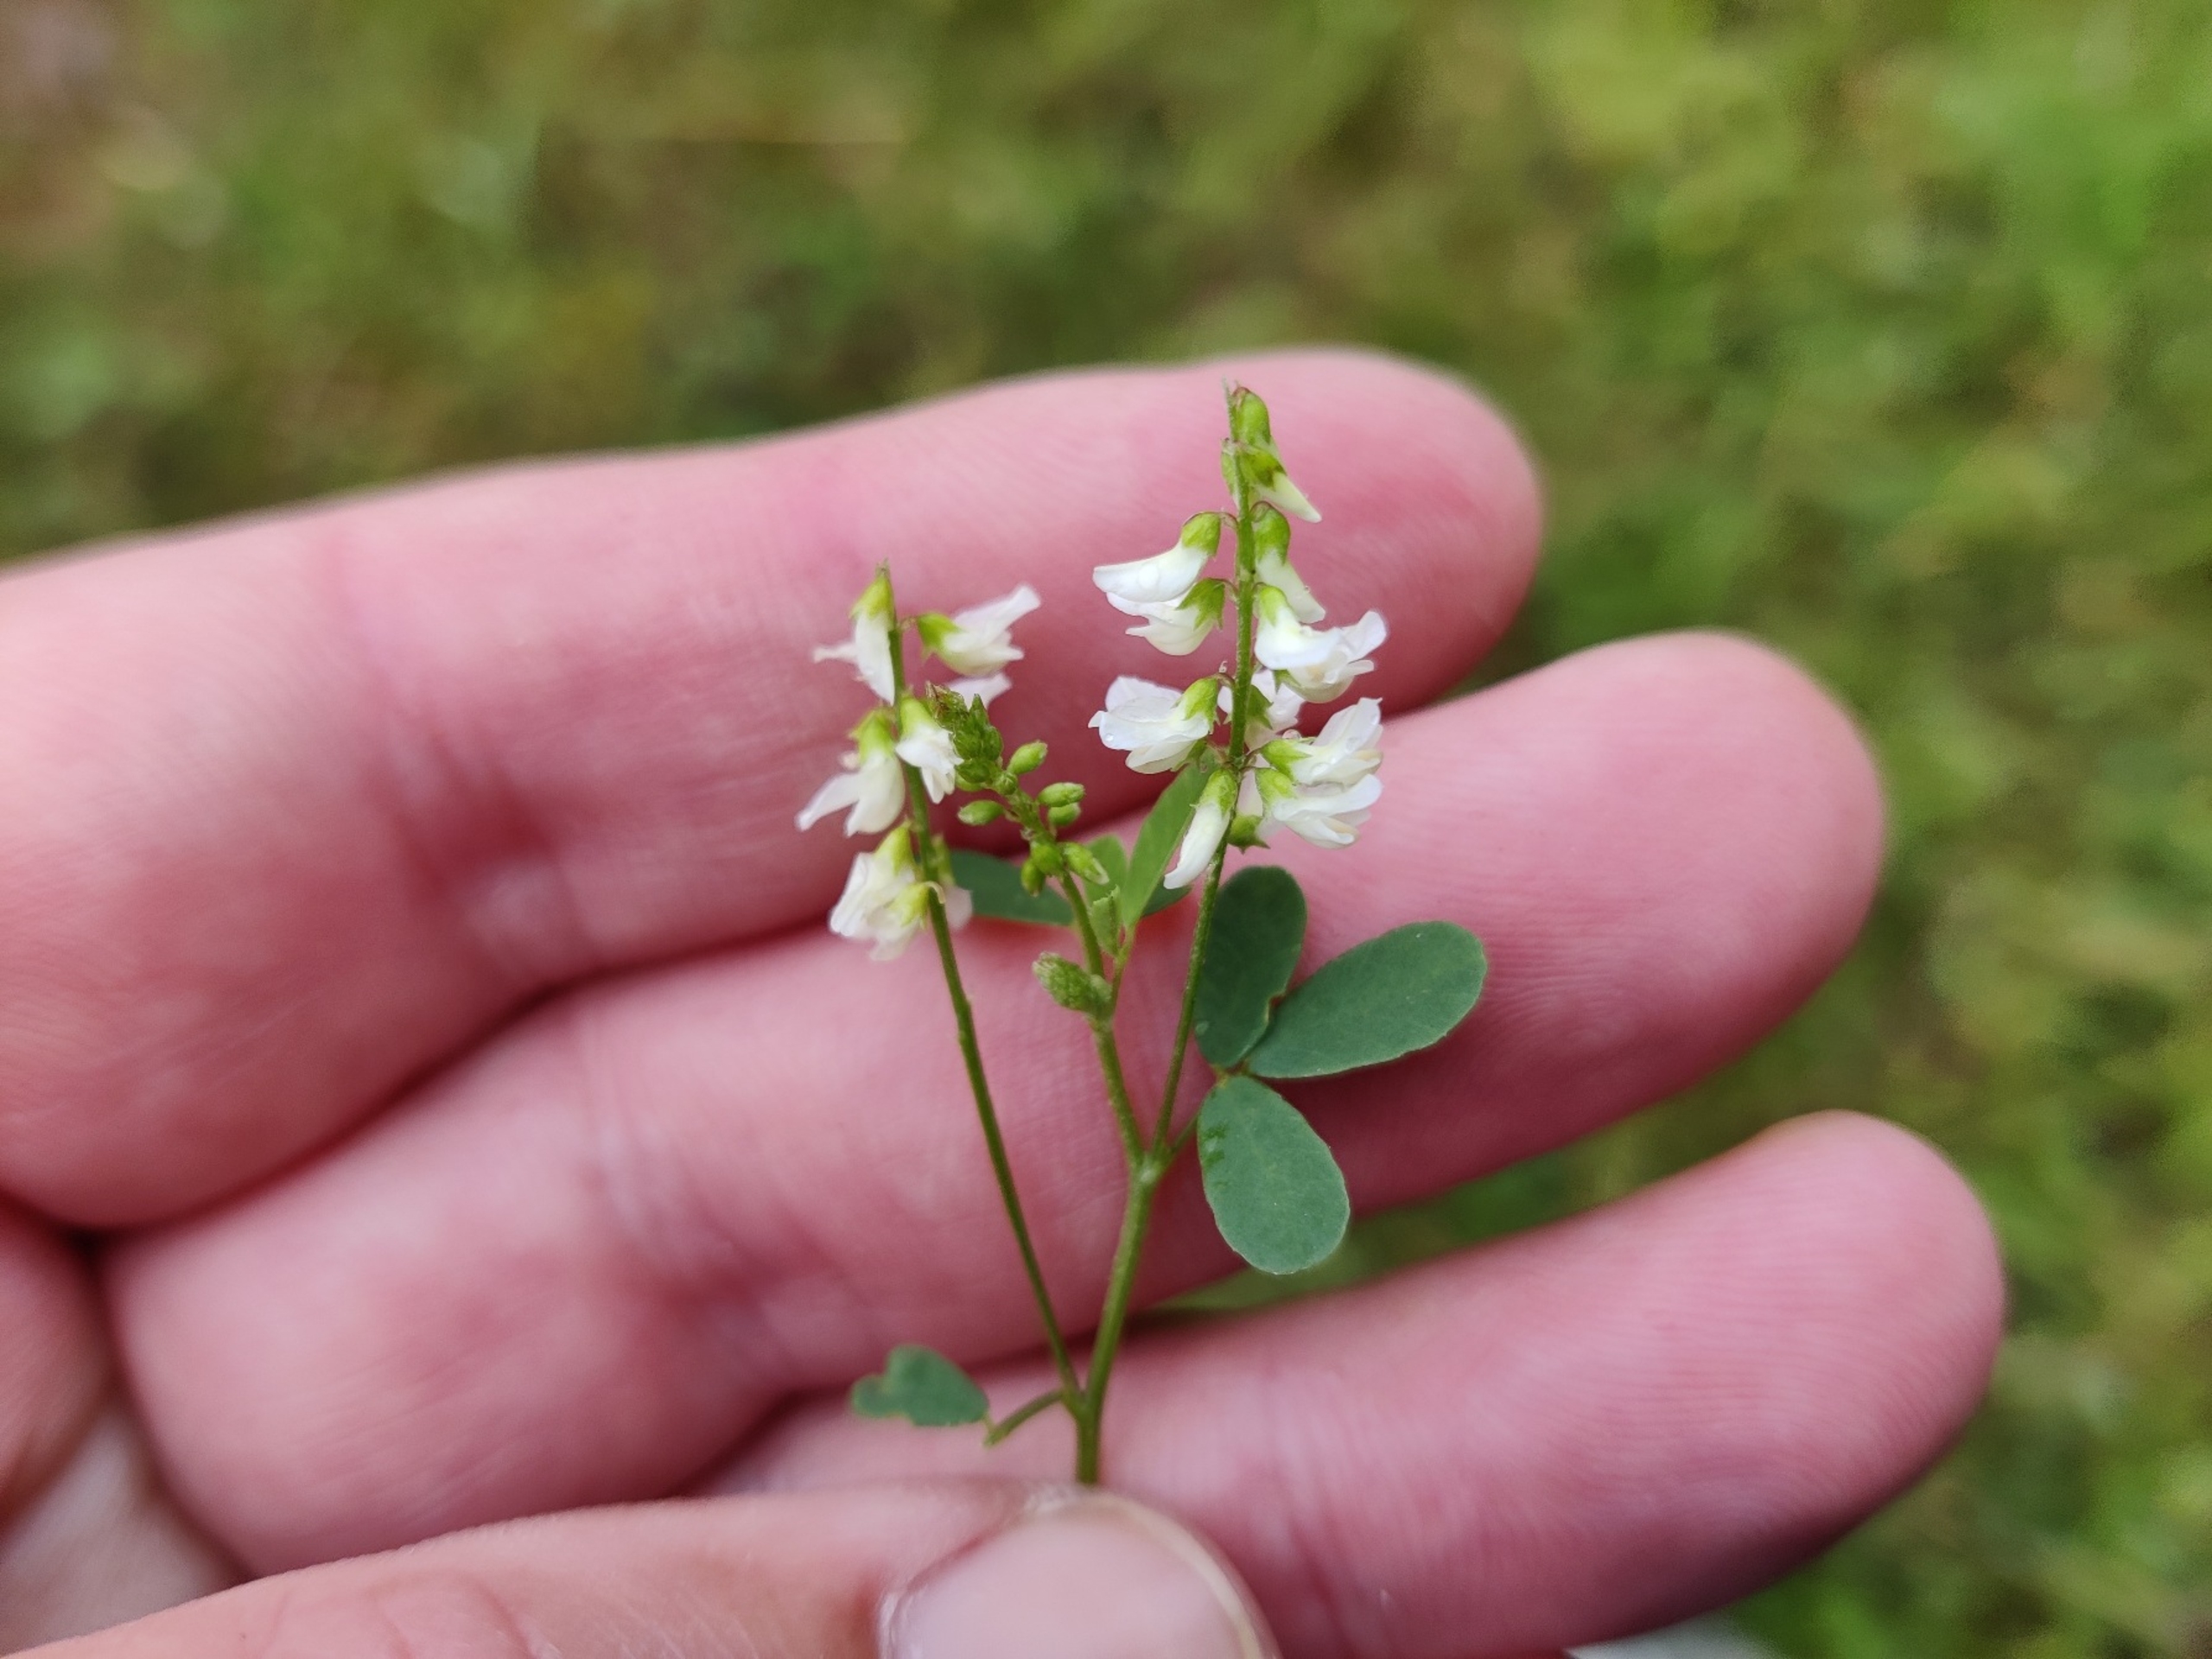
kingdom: Plantae
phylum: Tracheophyta
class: Magnoliopsida
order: Fabales
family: Fabaceae
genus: Melilotus
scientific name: Melilotus albus
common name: Hvid stenkløver
